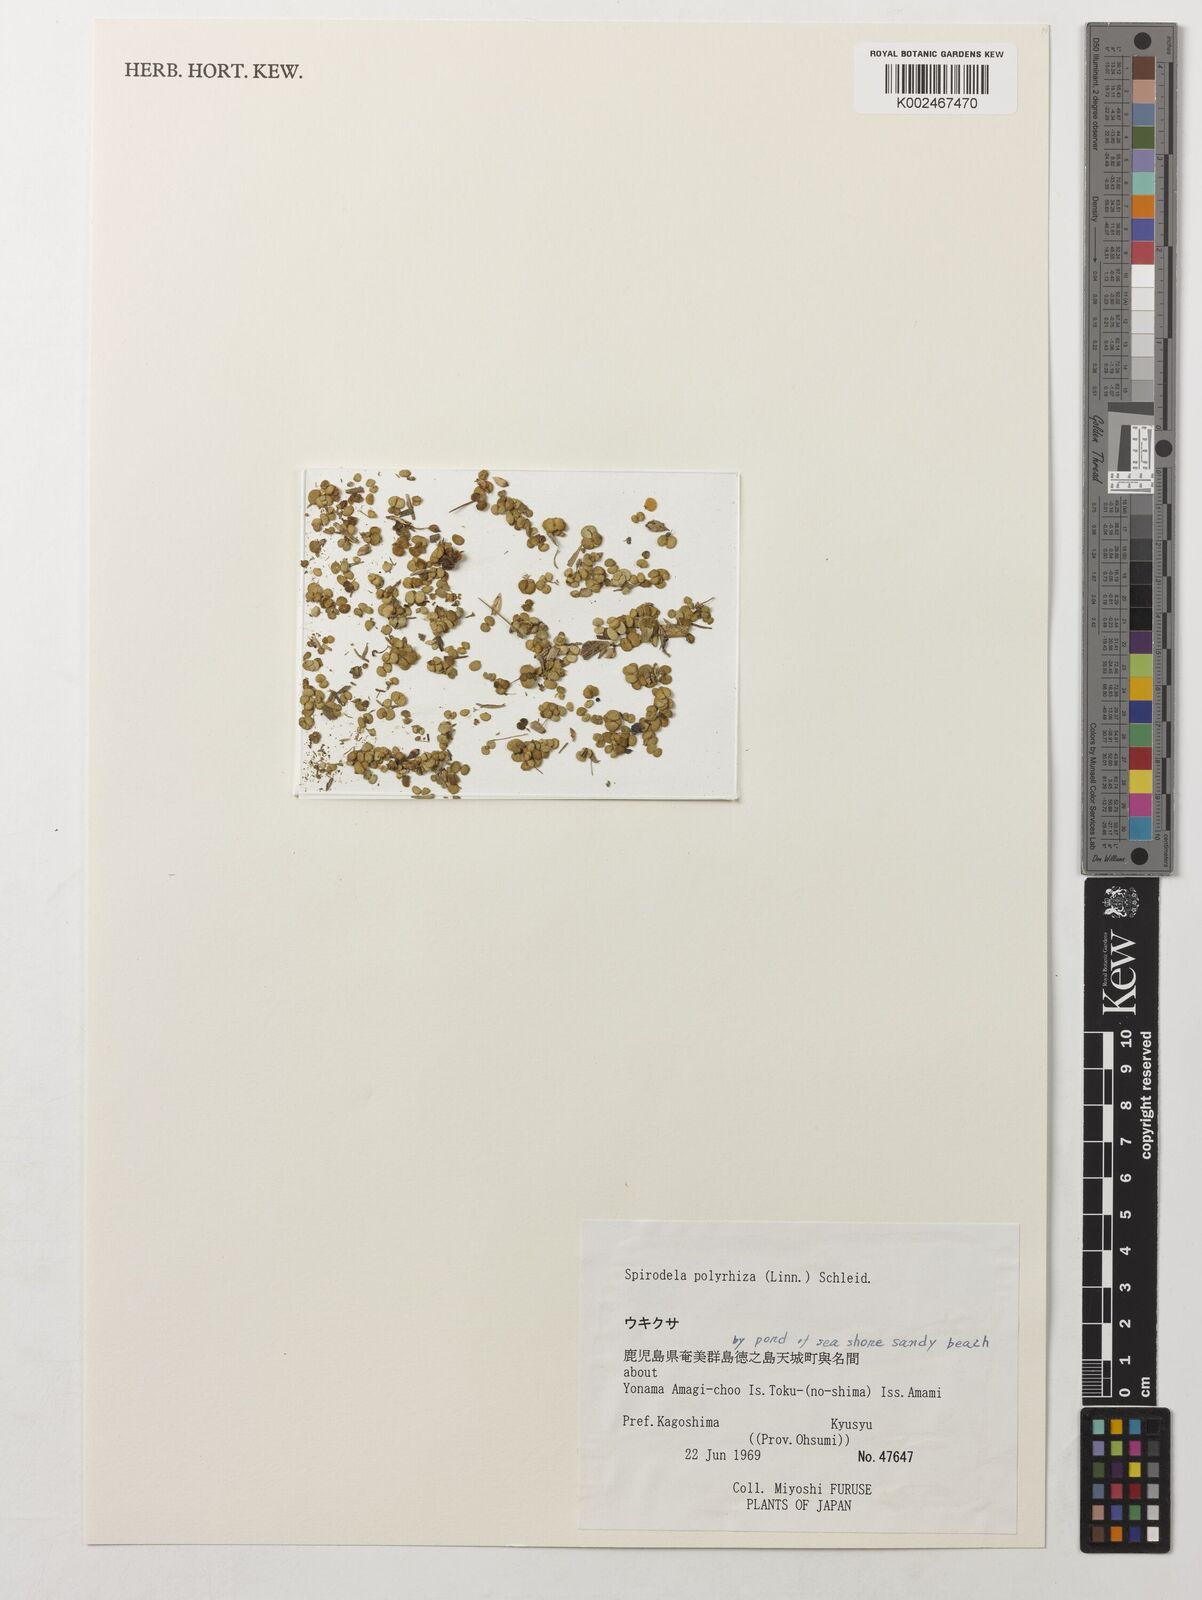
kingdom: Plantae
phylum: Tracheophyta
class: Liliopsida
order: Alismatales
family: Araceae
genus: Spirodela
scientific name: Spirodela polyrhiza
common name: Great duckweed
